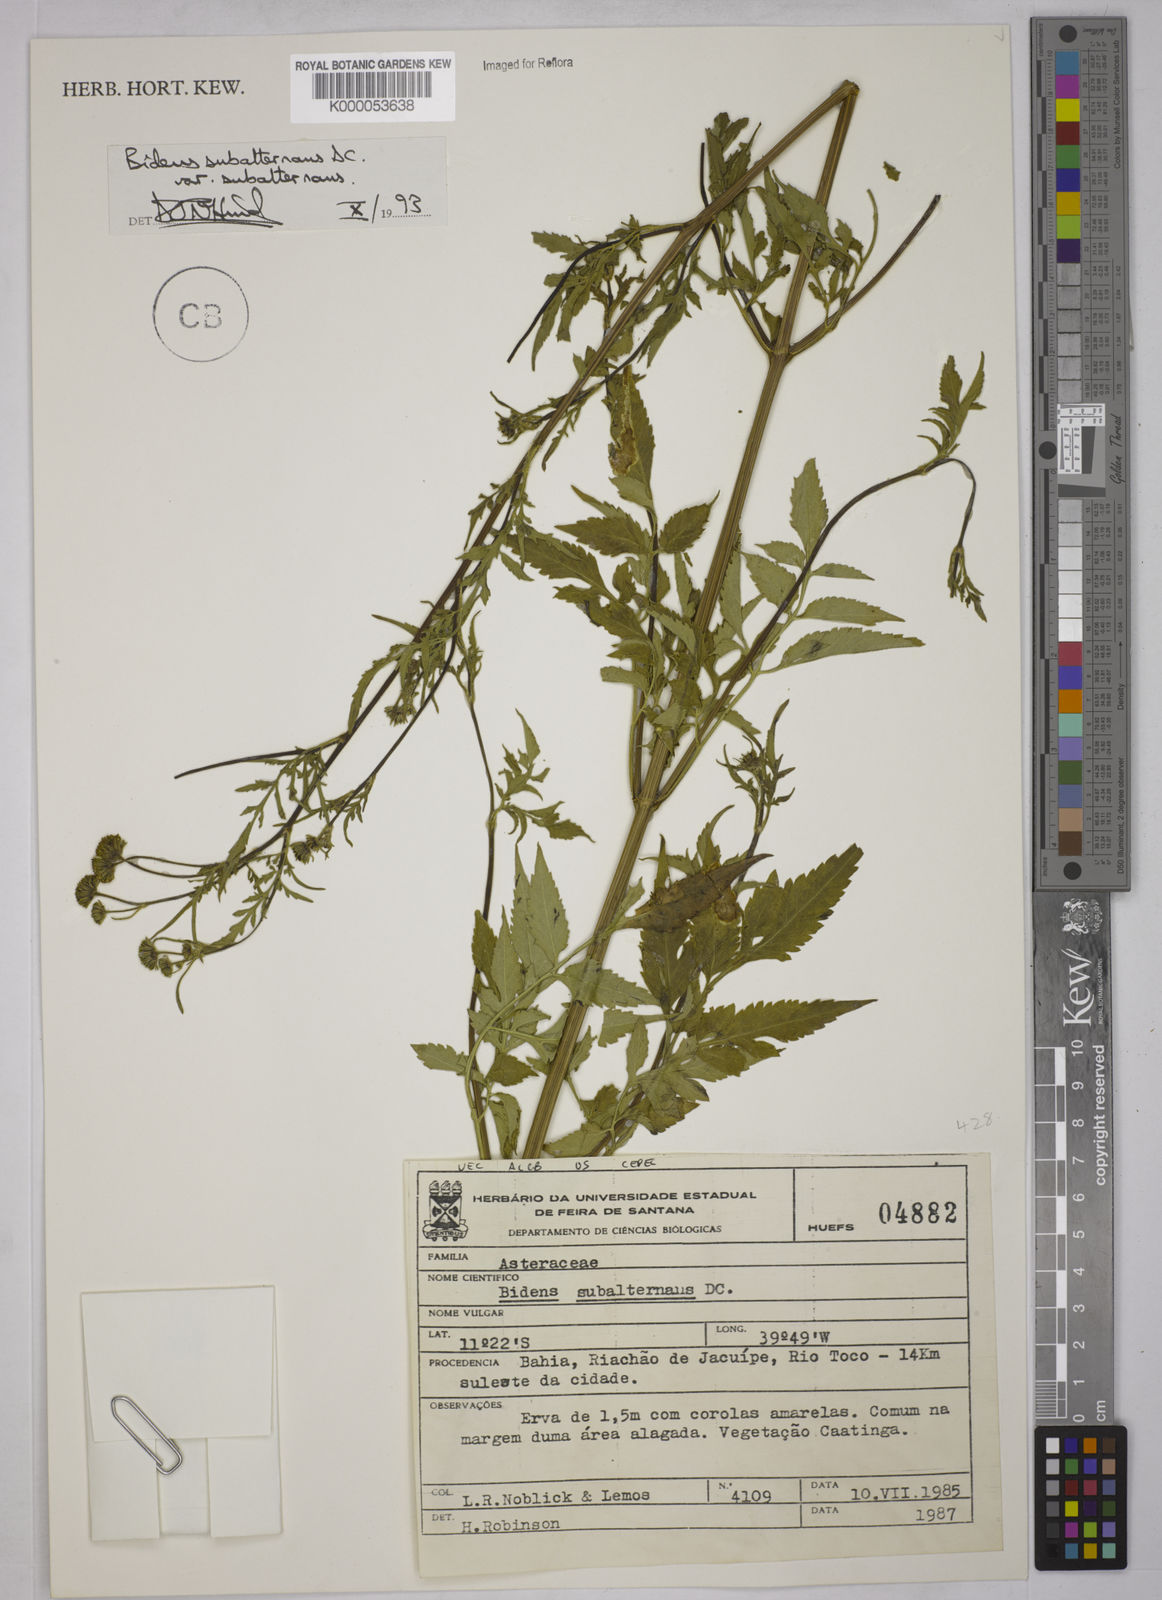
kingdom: Plantae
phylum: Tracheophyta
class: Magnoliopsida
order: Asterales
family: Asteraceae
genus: Bidens
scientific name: Bidens subalternans
